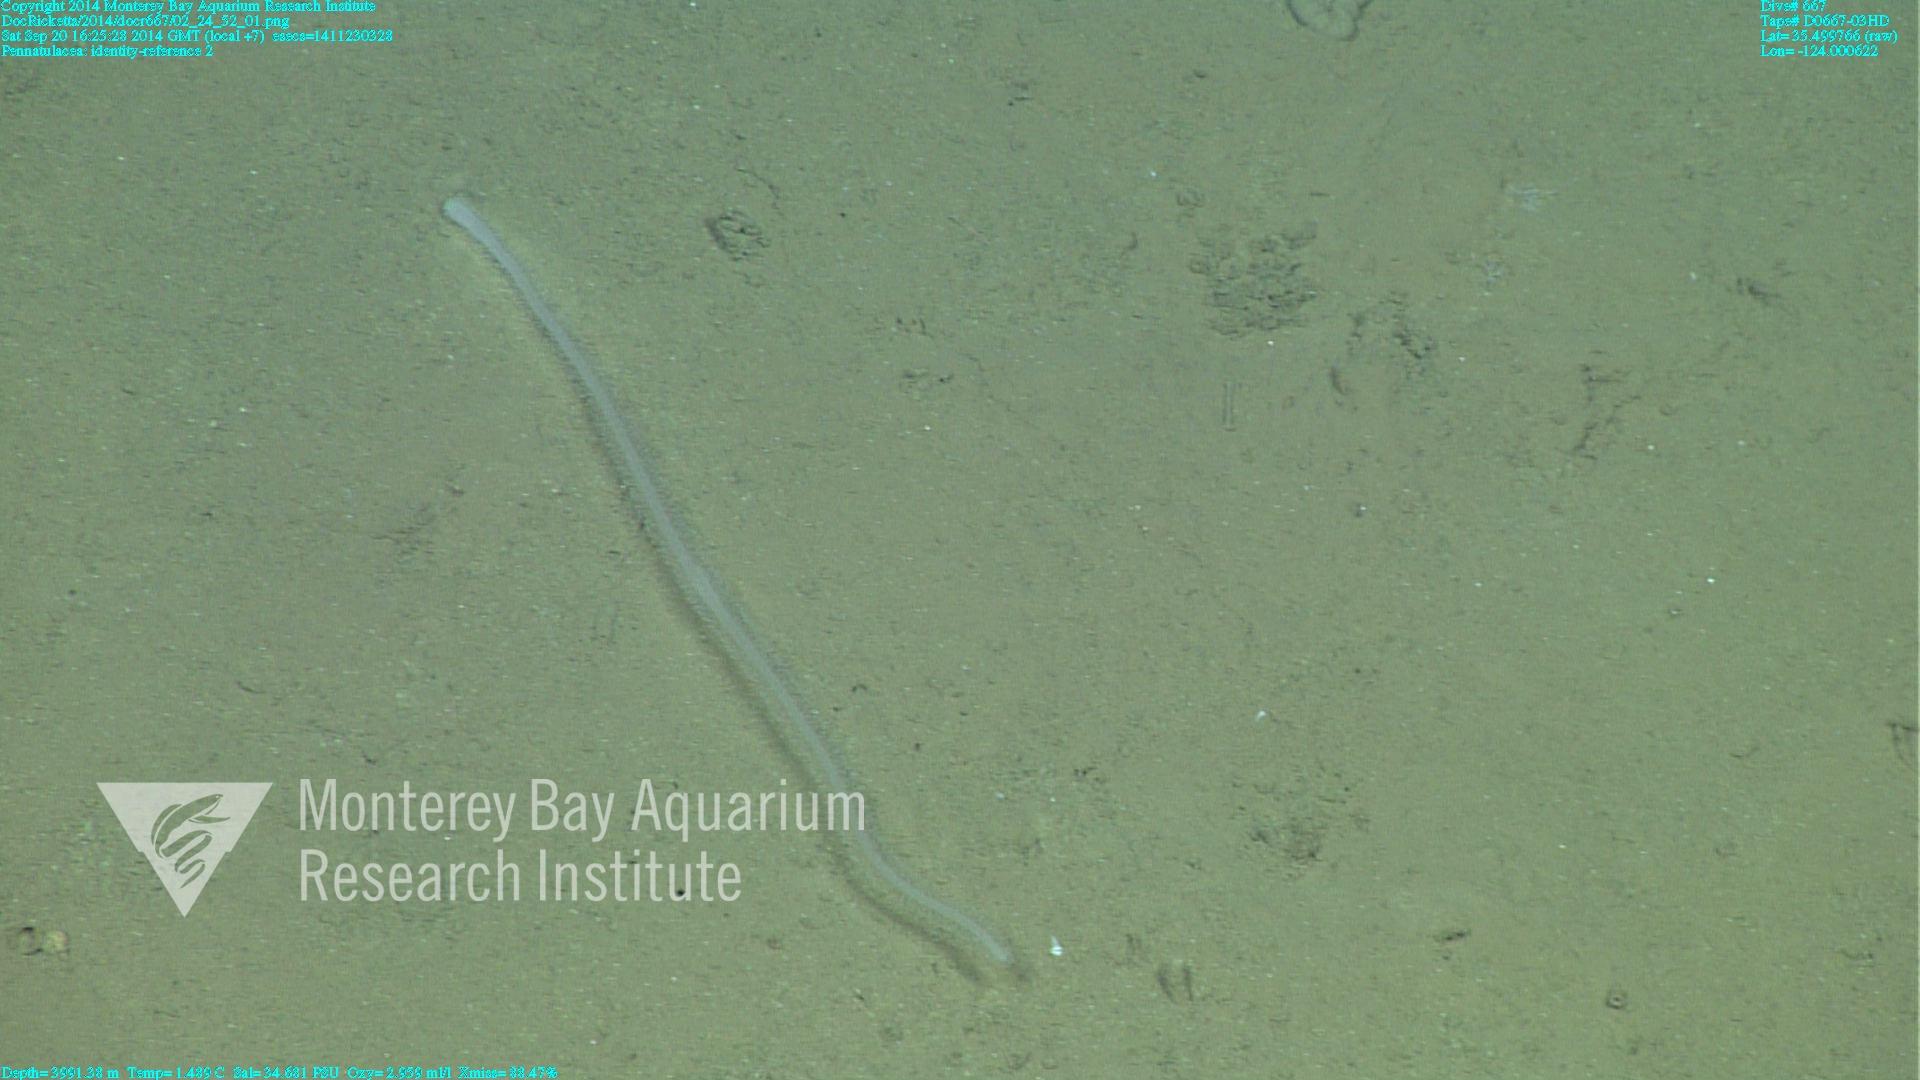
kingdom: Animalia
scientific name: Animalia
